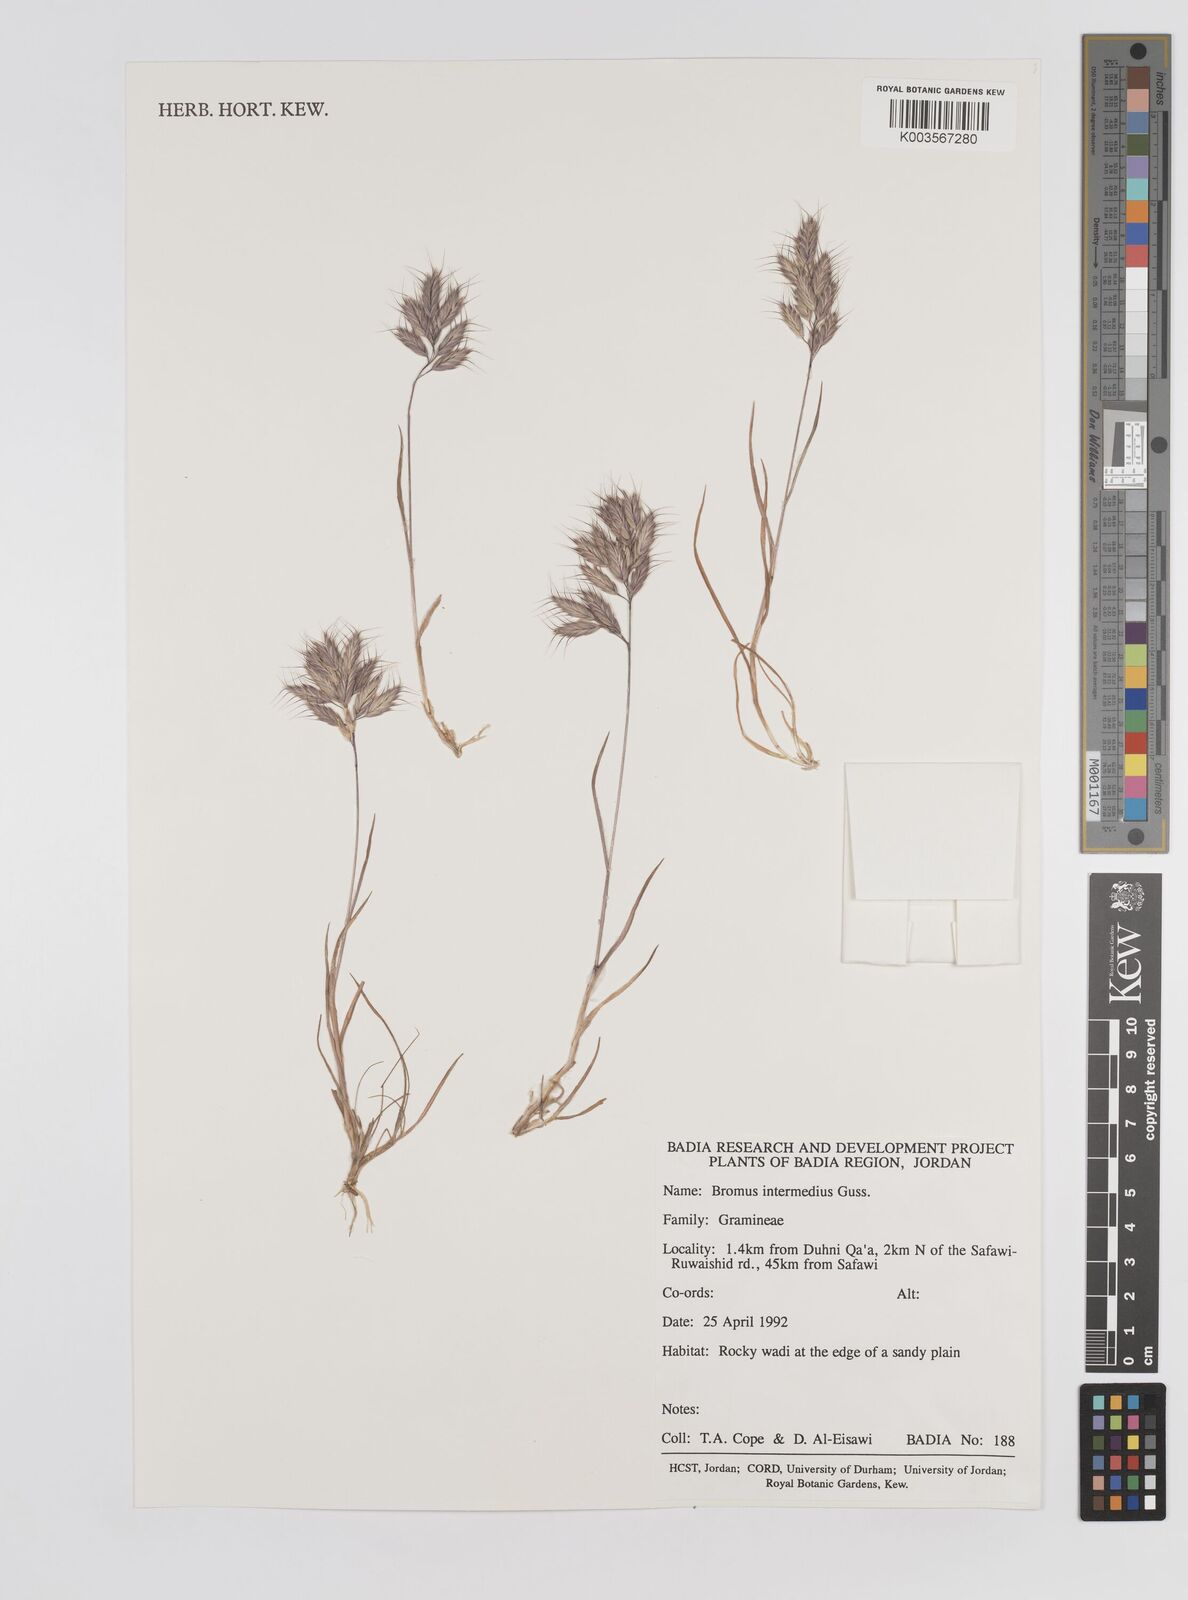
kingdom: Plantae
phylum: Tracheophyta
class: Liliopsida
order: Poales
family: Poaceae
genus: Bromus
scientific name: Bromus intermedius
